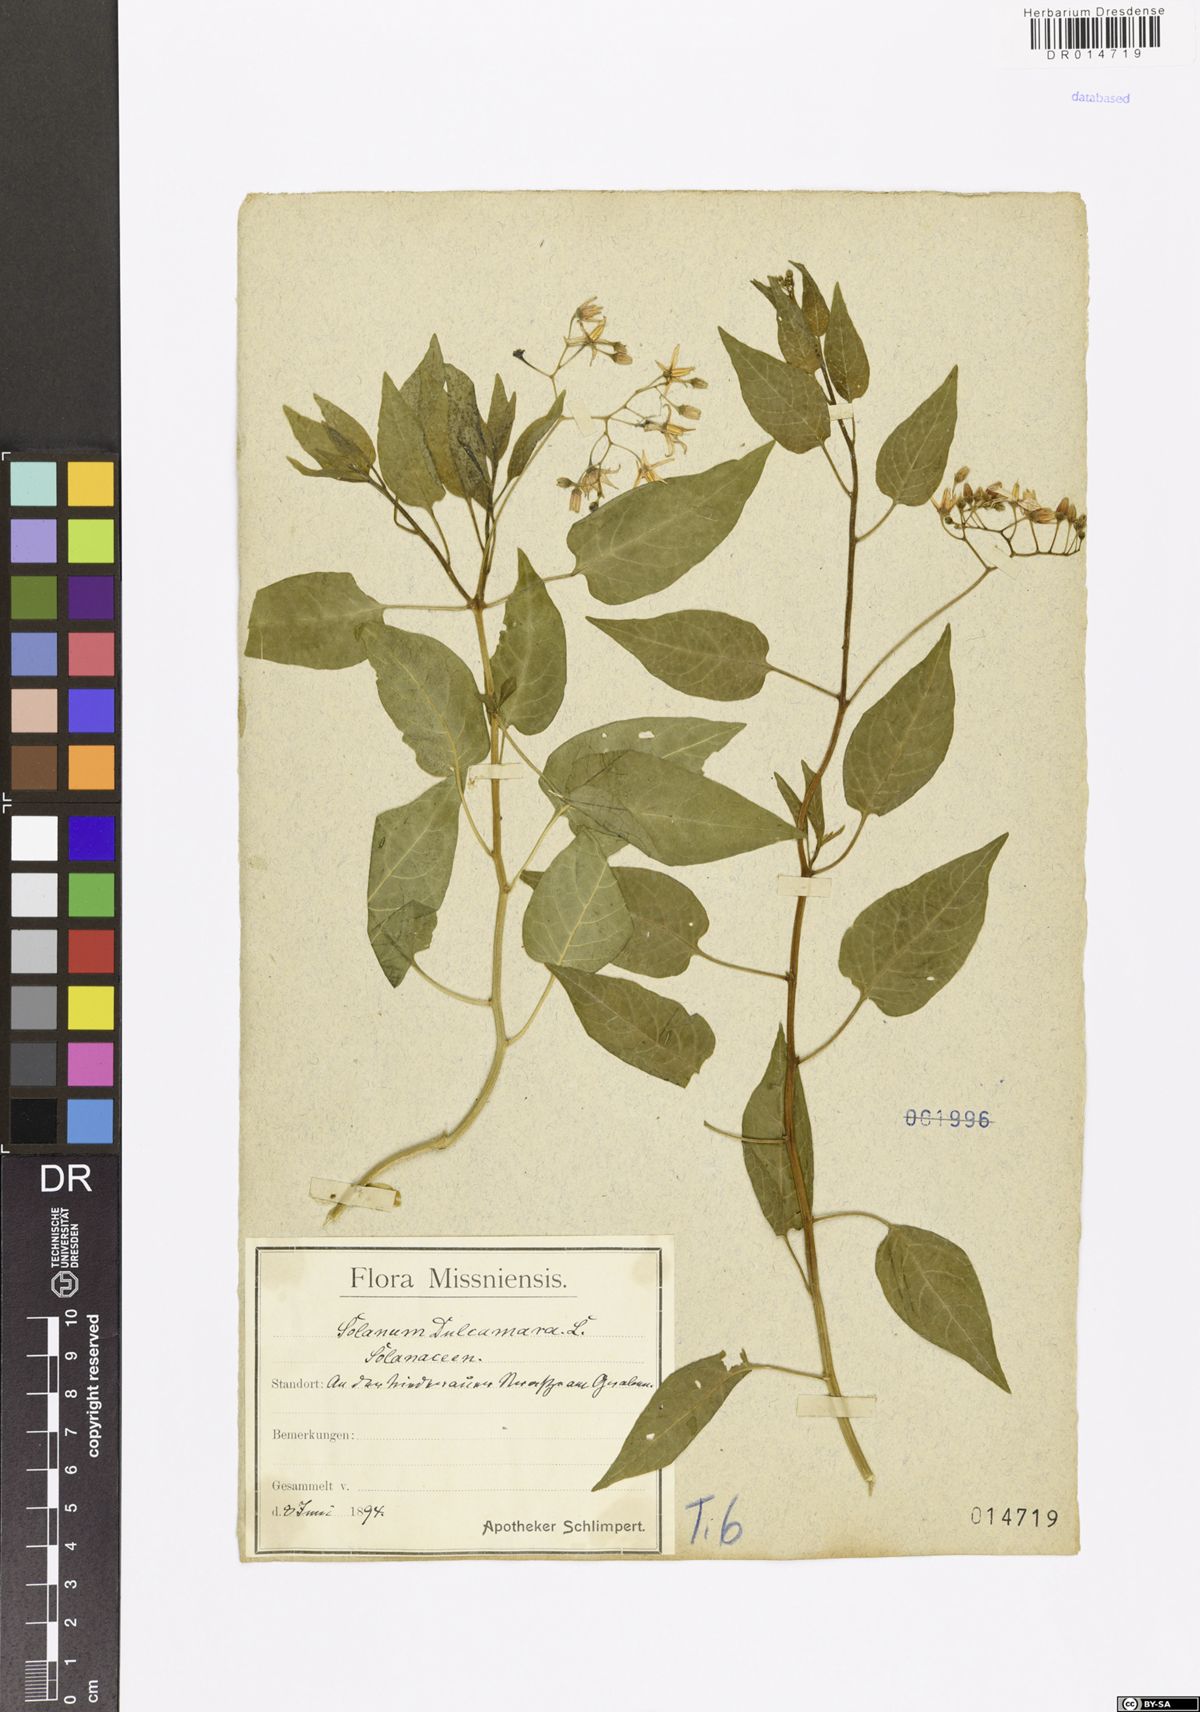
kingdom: Plantae
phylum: Tracheophyta
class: Magnoliopsida
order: Solanales
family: Solanaceae
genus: Solanum
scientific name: Solanum dulcamara
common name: Climbing nightshade
